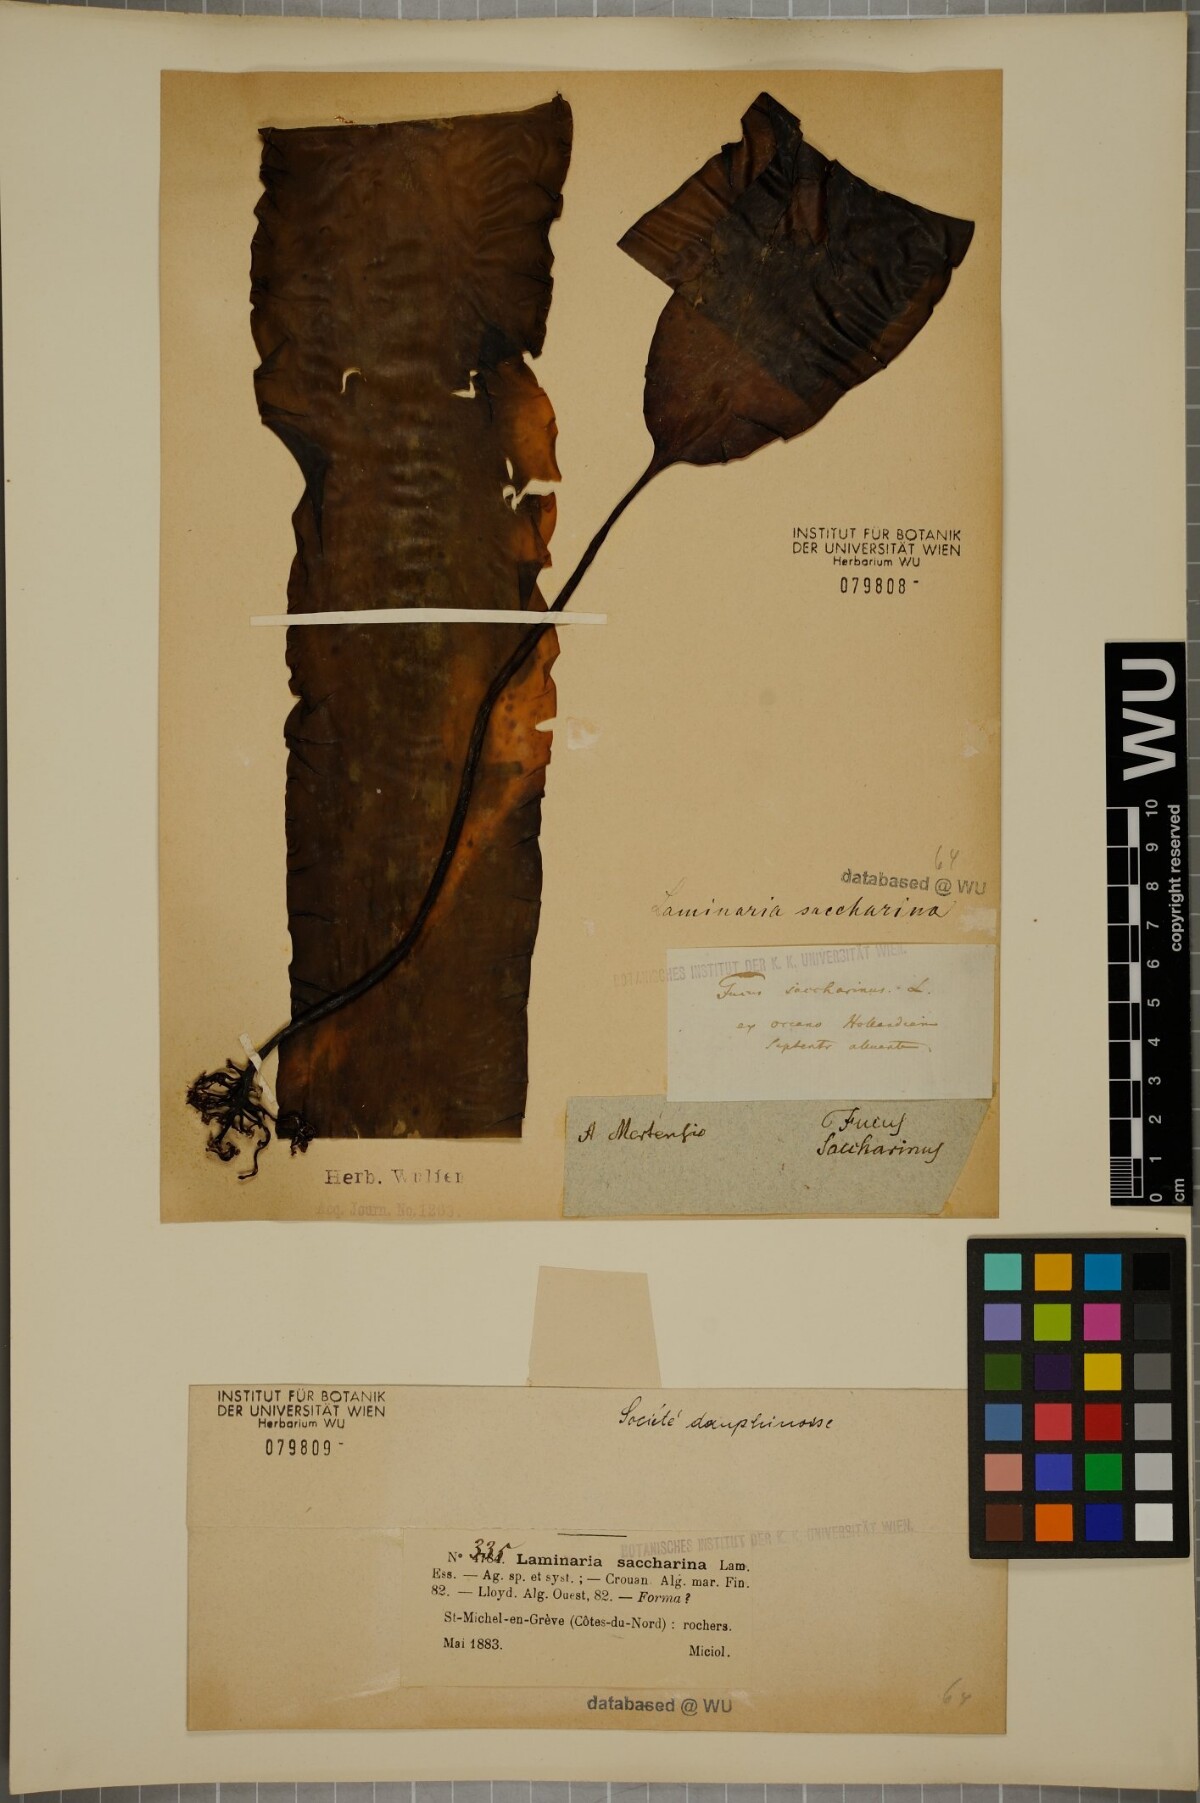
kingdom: Chromista
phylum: Ochrophyta
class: Phaeophyceae
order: Laminariales
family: Laminariaceae
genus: Saccharina
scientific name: Saccharina latissima
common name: Poor man's weather glass
